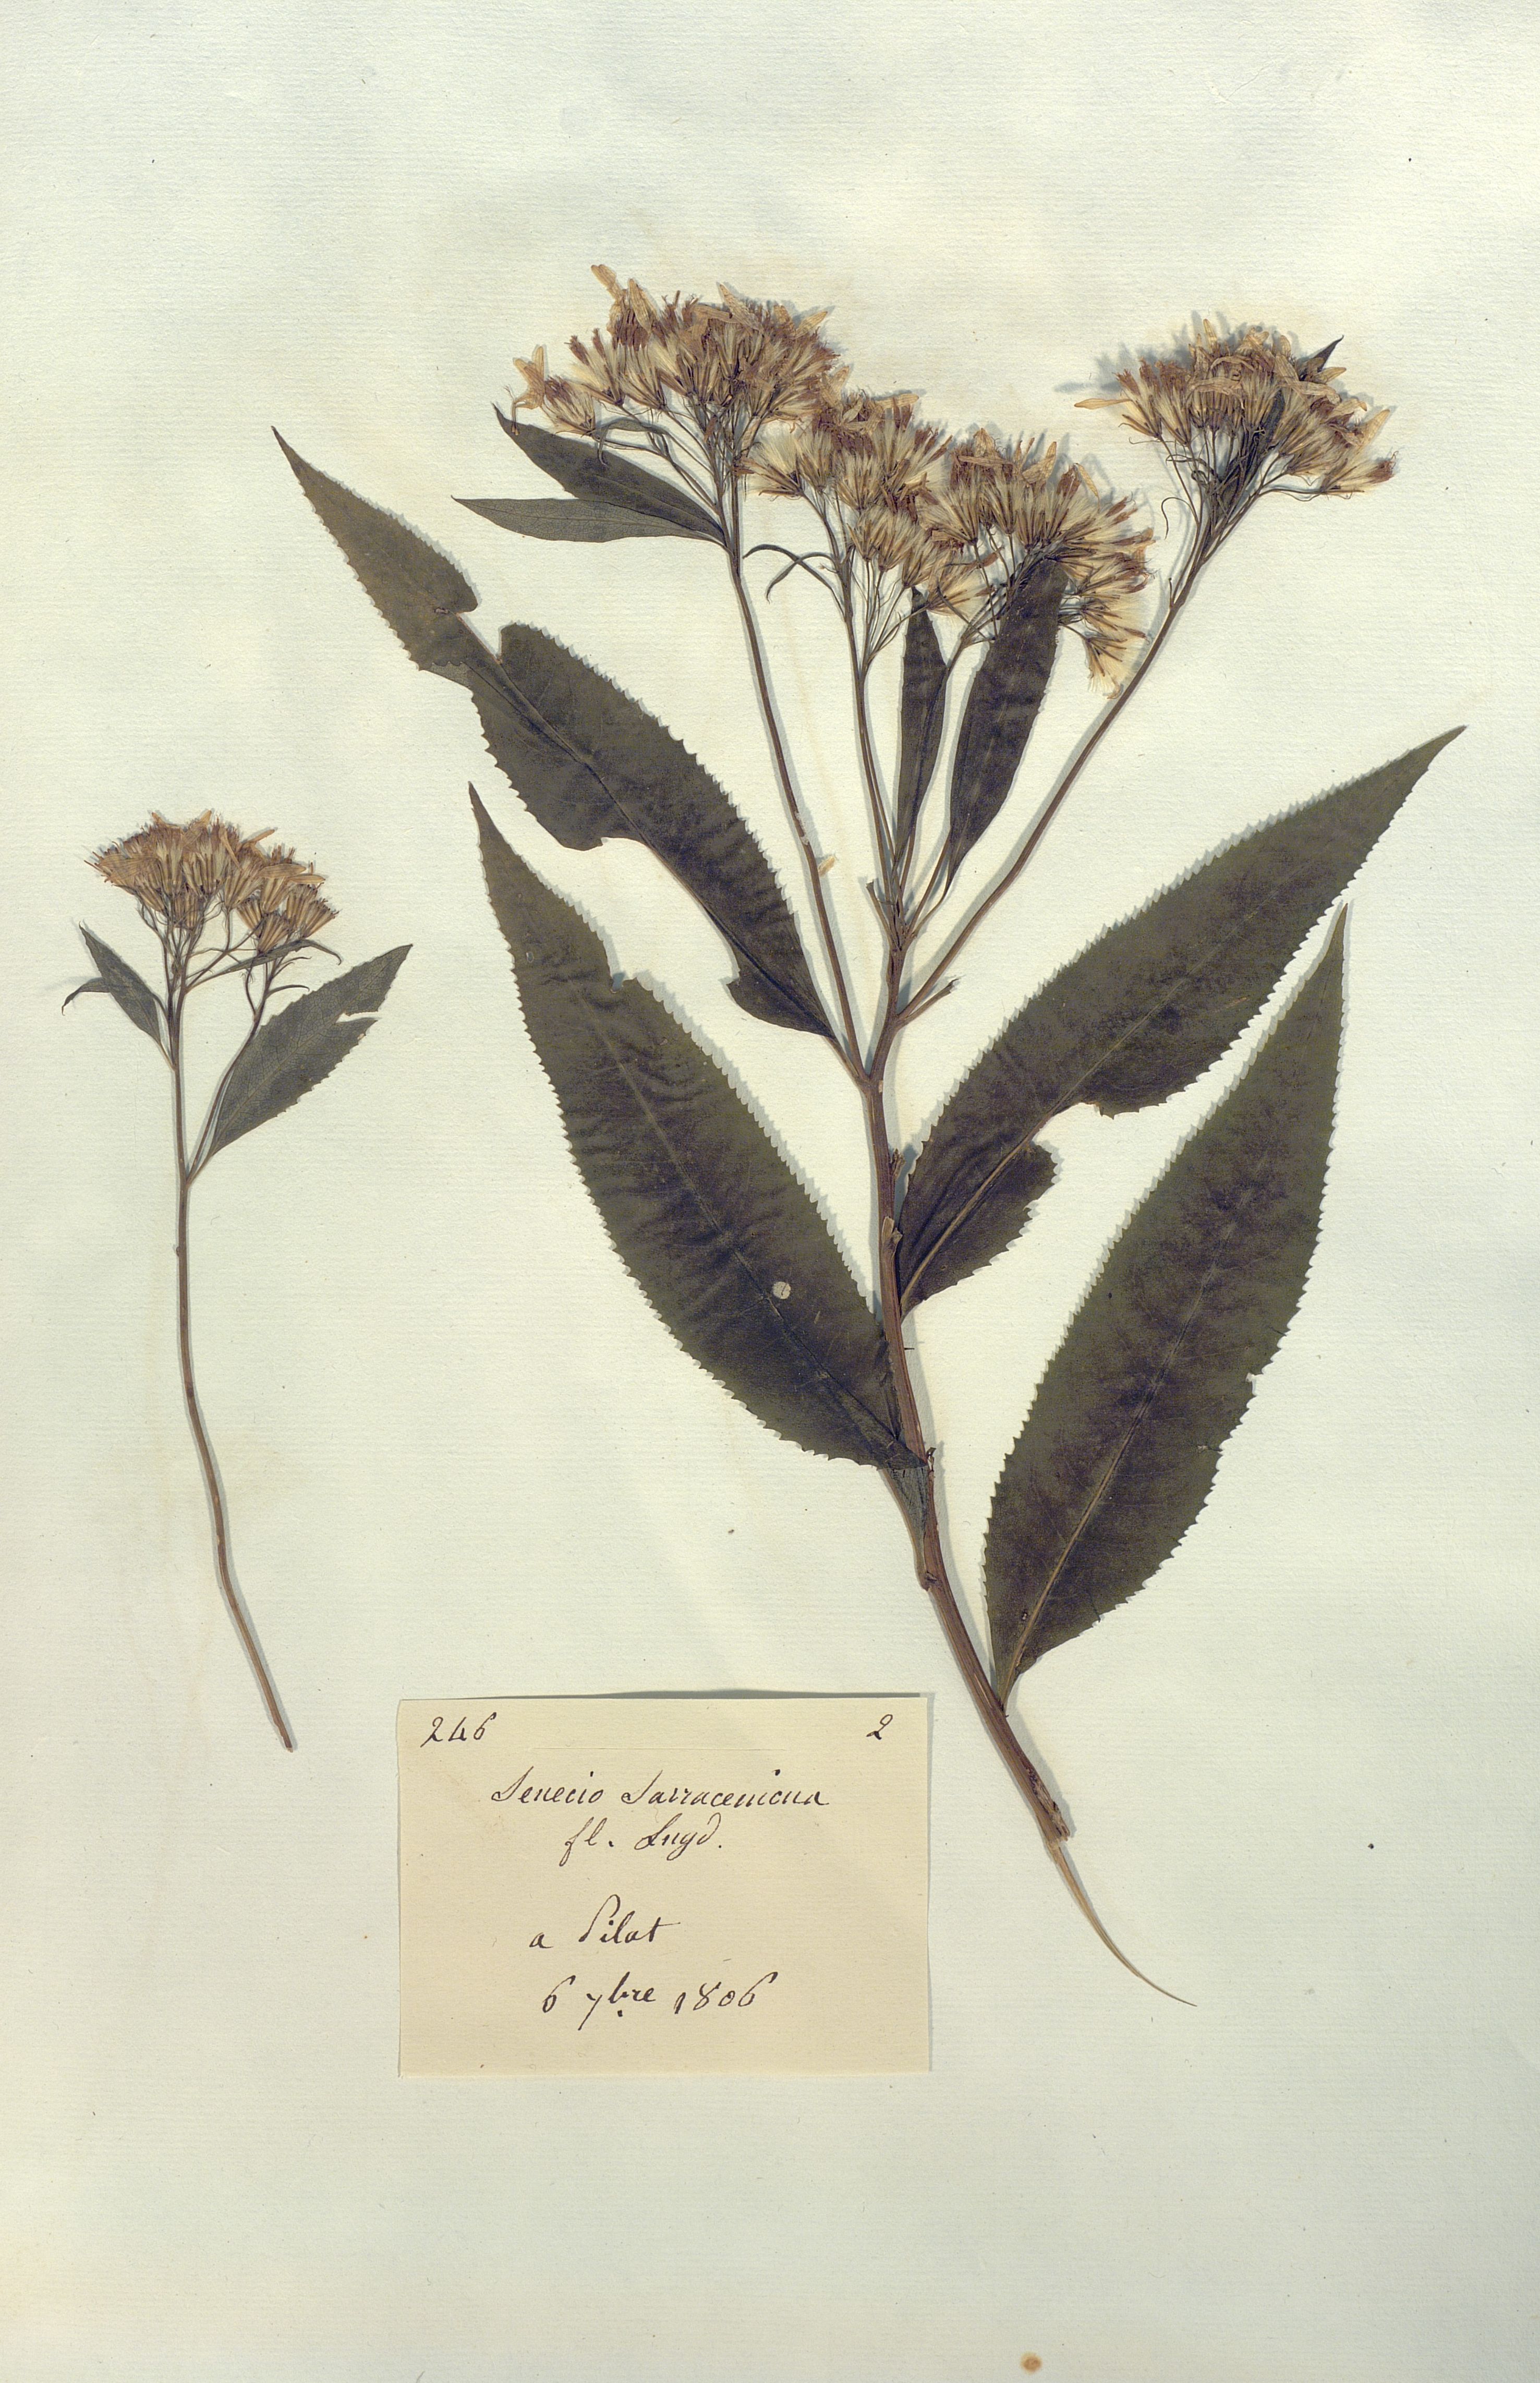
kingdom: Plantae
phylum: Tracheophyta
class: Magnoliopsida
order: Asterales
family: Asteraceae
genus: Senecio
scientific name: Senecio sarracenicus
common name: Broad-leaved ragwort
